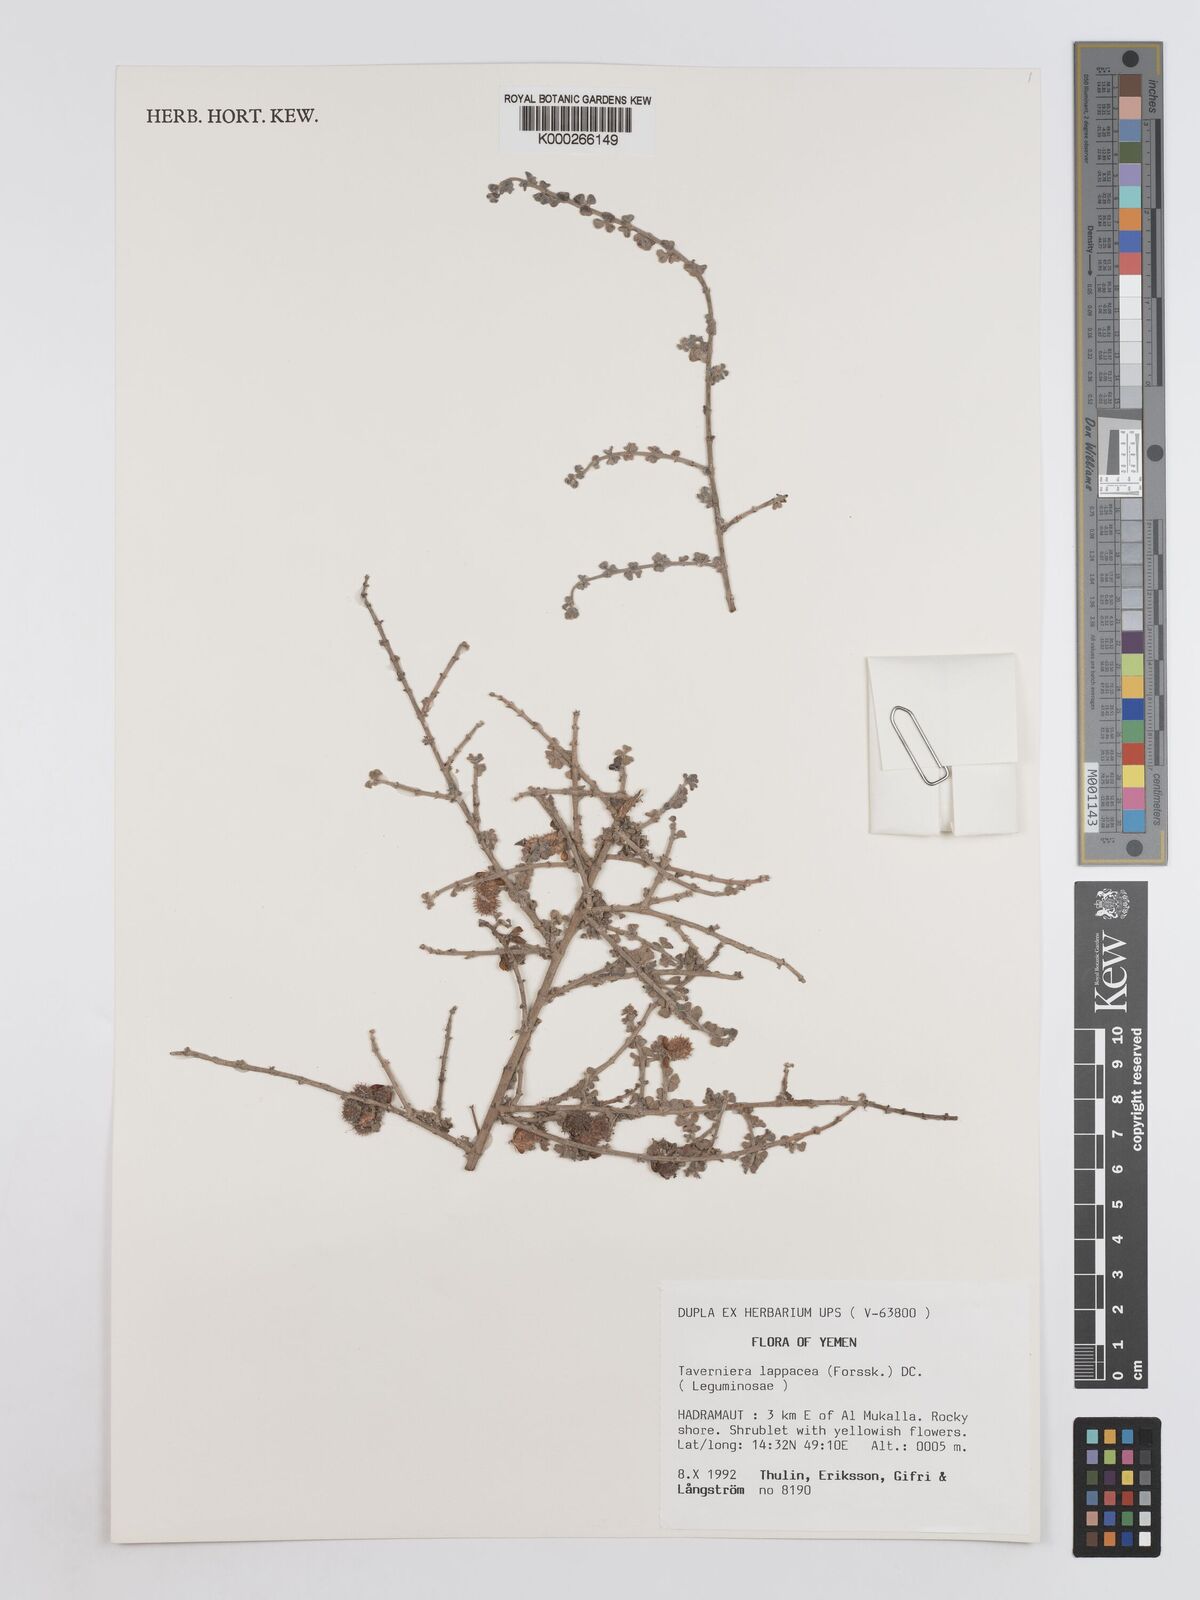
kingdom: Plantae
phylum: Tracheophyta
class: Magnoliopsida
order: Fabales
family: Fabaceae
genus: Taverniera
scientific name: Taverniera lappacea
